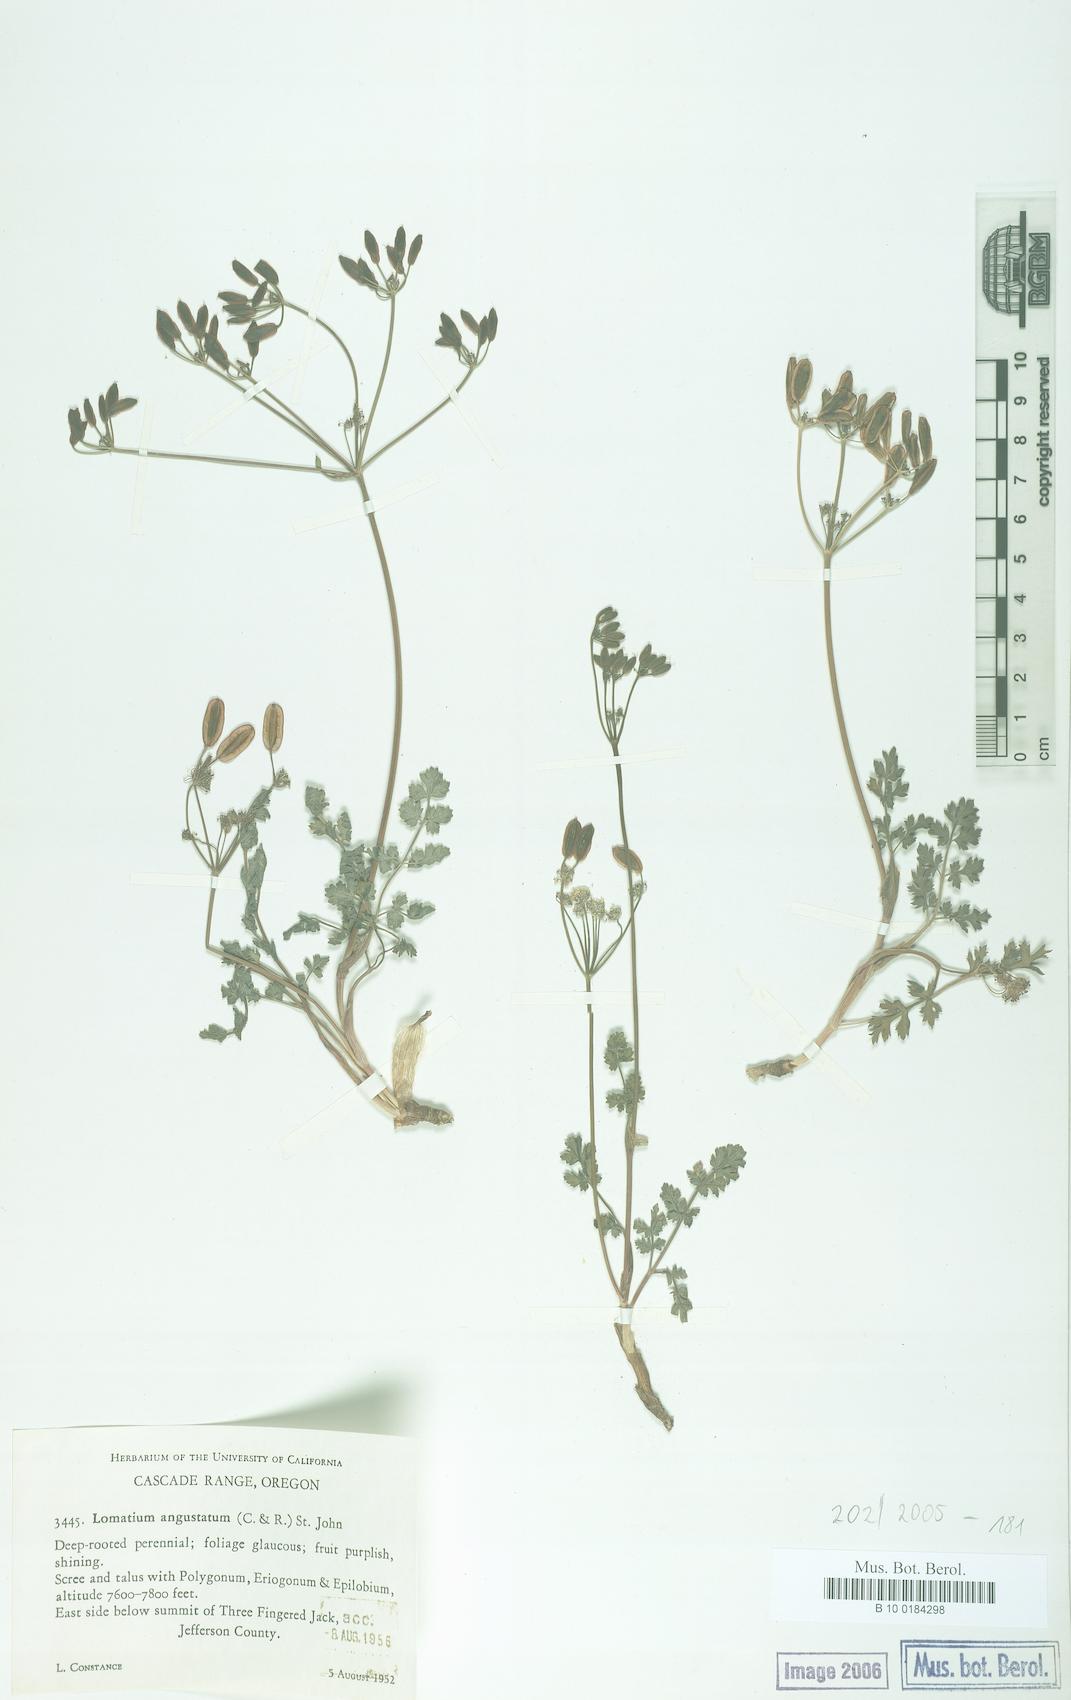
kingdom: Plantae
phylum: Tracheophyta
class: Magnoliopsida
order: Apiales
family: Apiaceae
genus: Lomatium
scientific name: Lomatium martindalei
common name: Cascade desert-parsley
